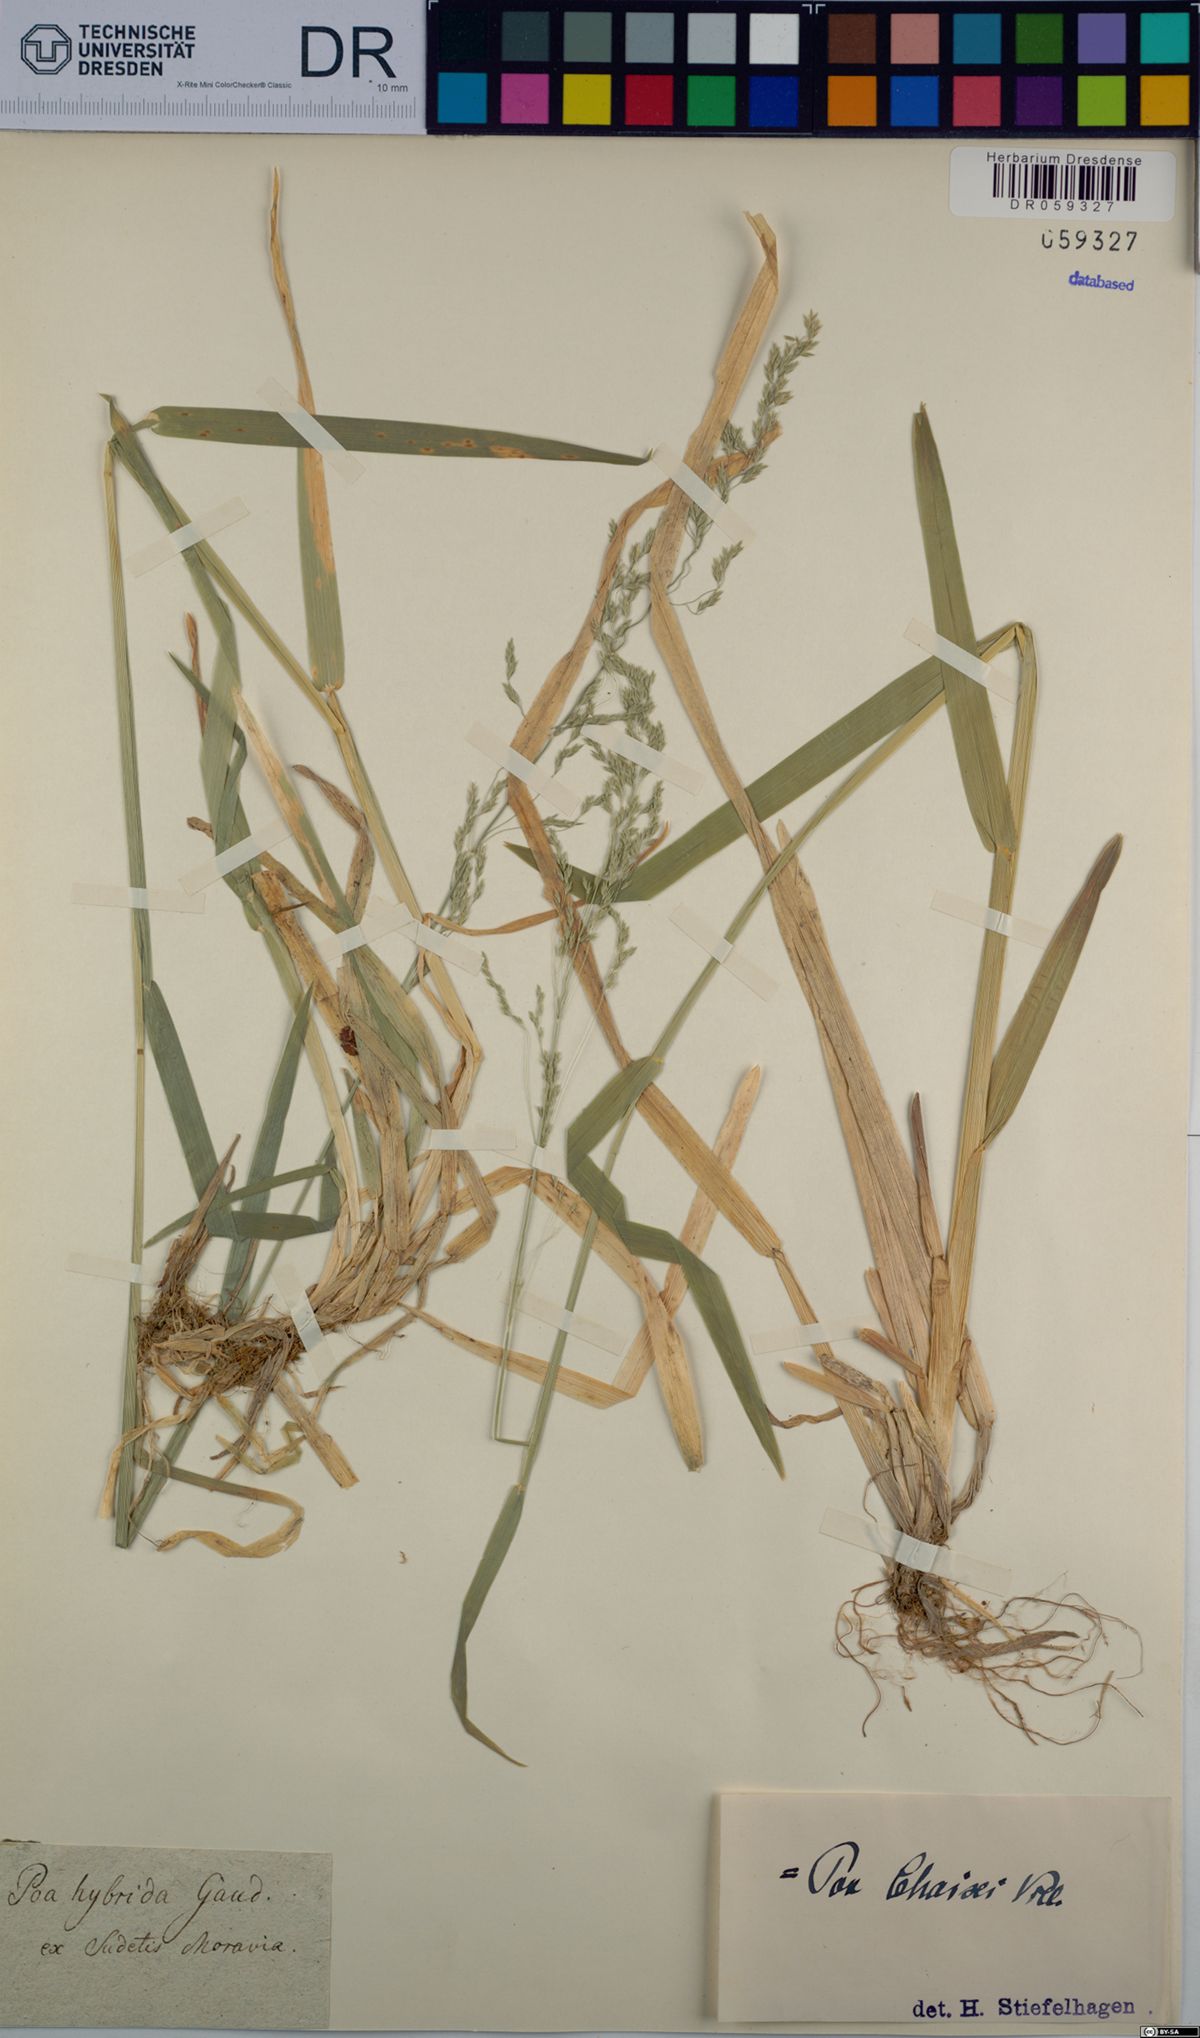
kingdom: Plantae
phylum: Tracheophyta
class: Liliopsida
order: Poales
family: Poaceae
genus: Poa
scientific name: Poa chaixii
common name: Broad-leaved meadow-grass
